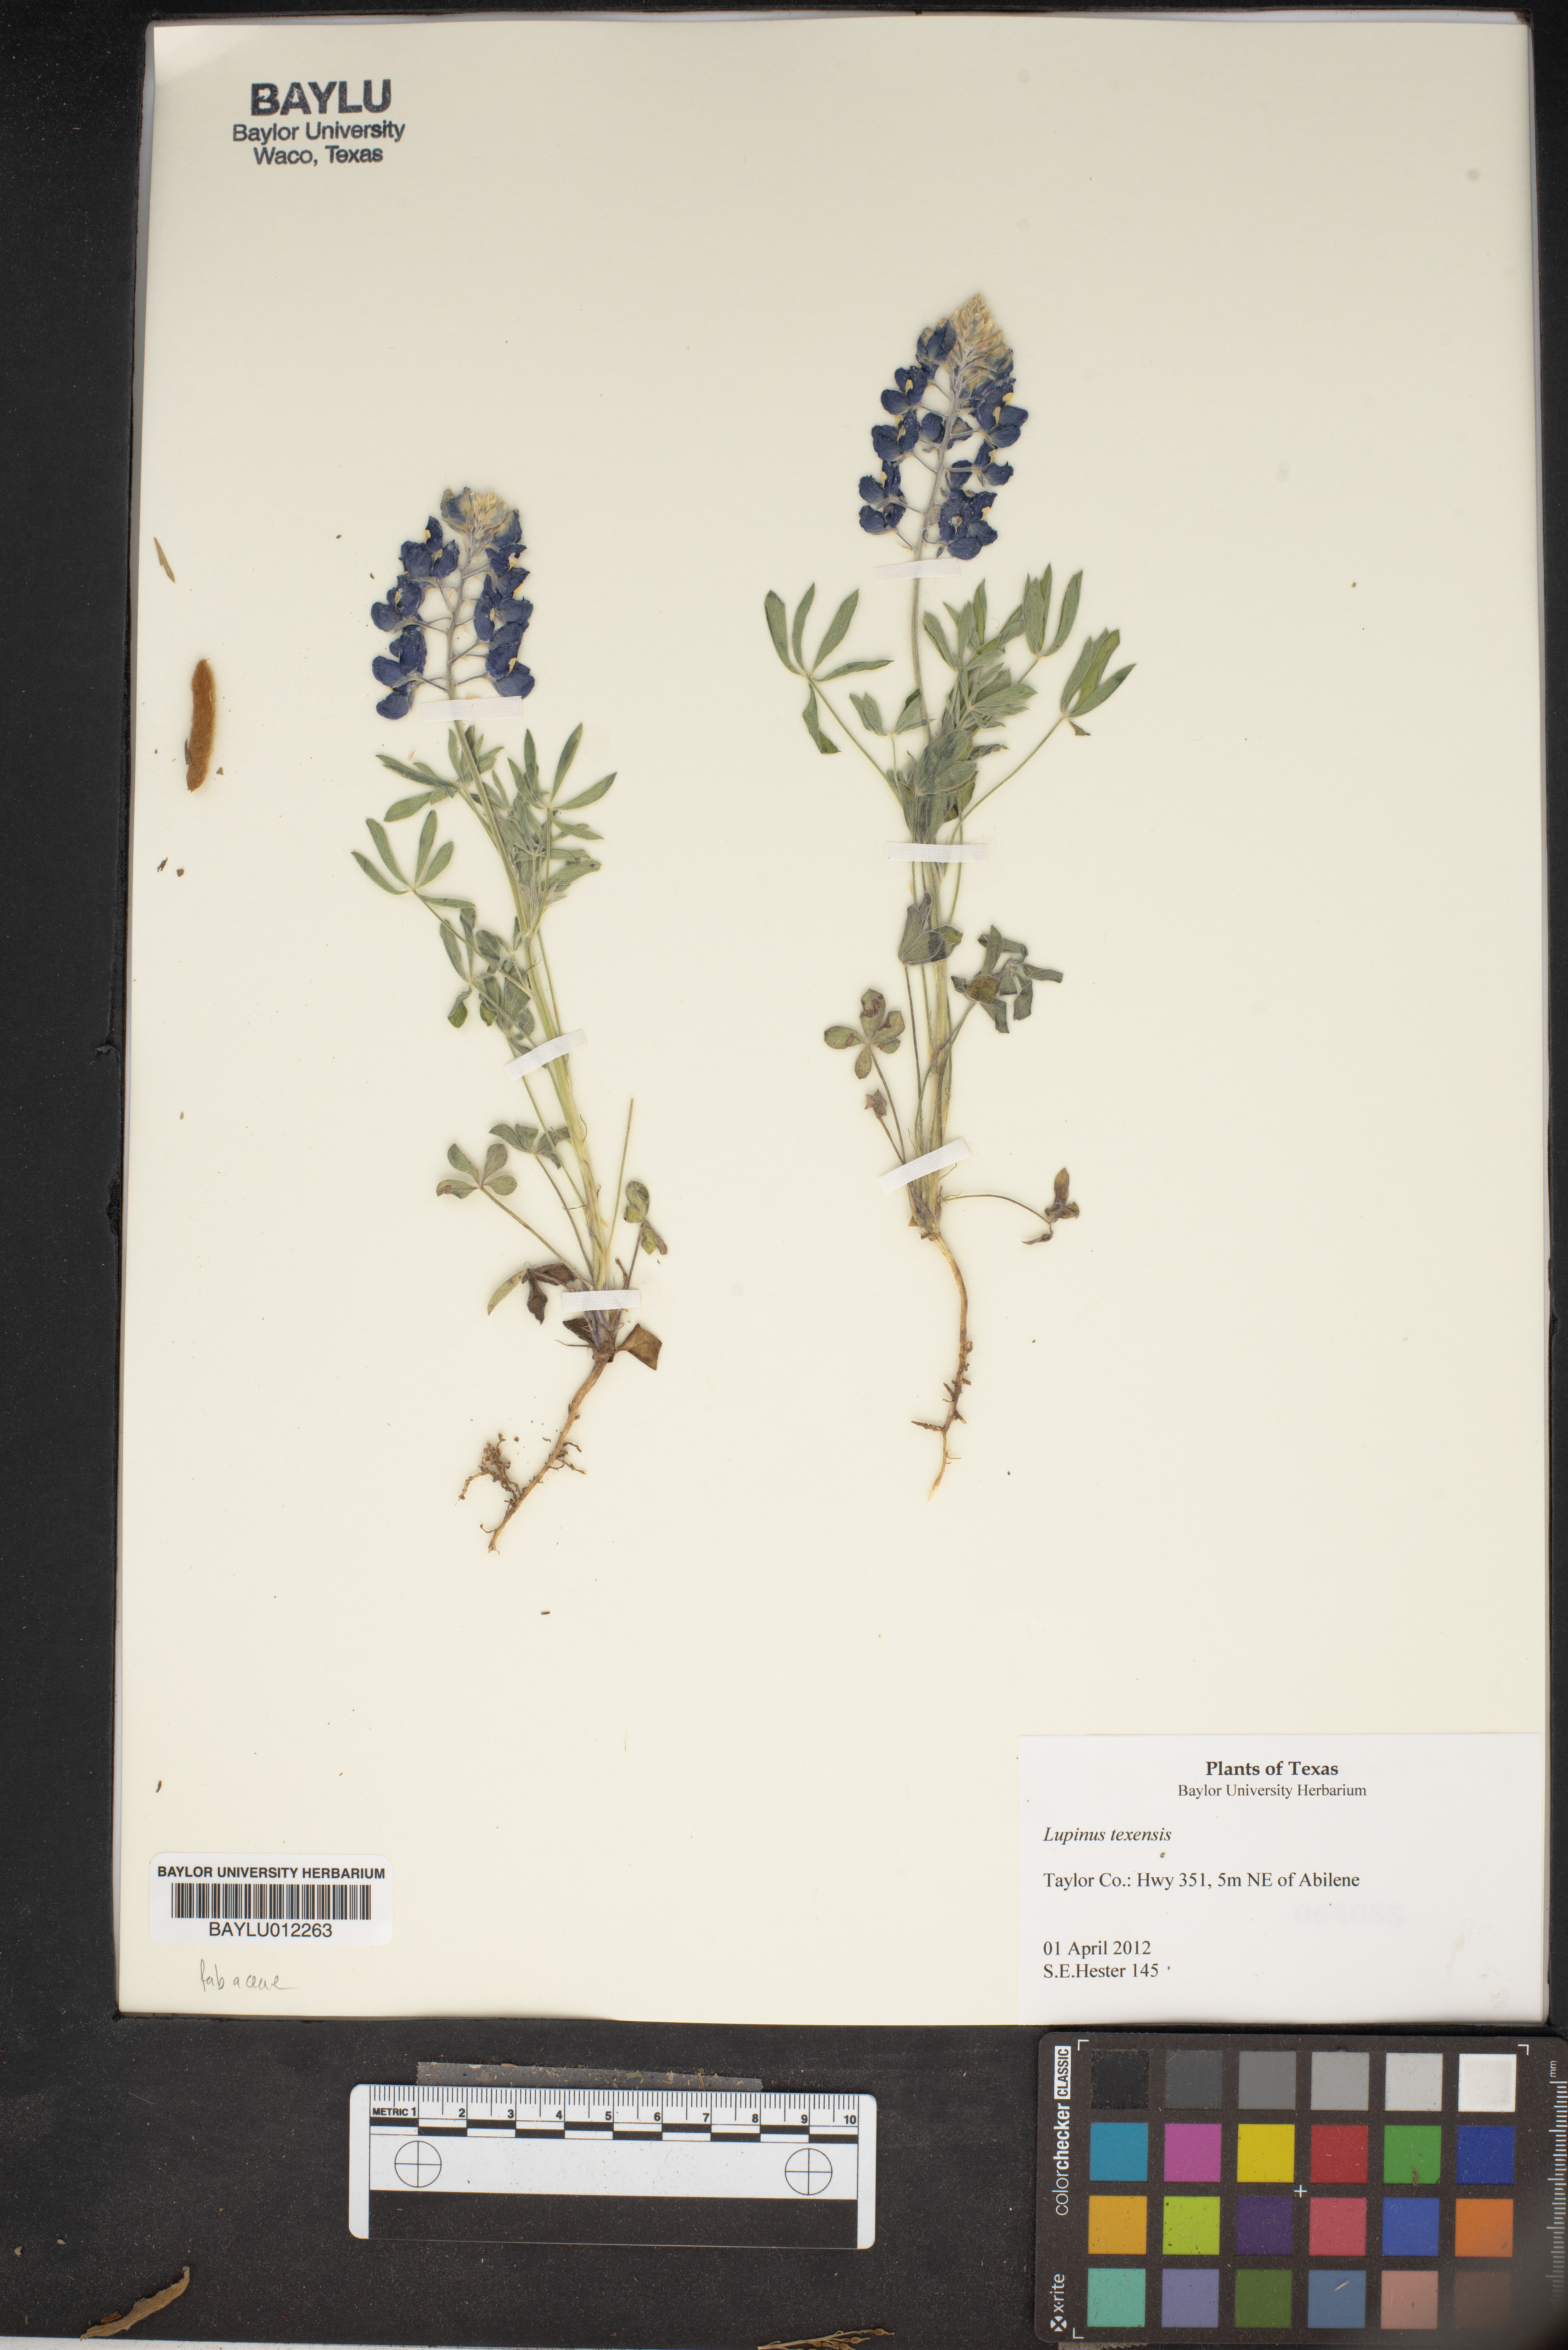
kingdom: Plantae
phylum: Tracheophyta
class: Magnoliopsida
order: Fabales
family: Fabaceae
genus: Lupinus
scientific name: Lupinus texensis
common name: Texas bluebonnet
